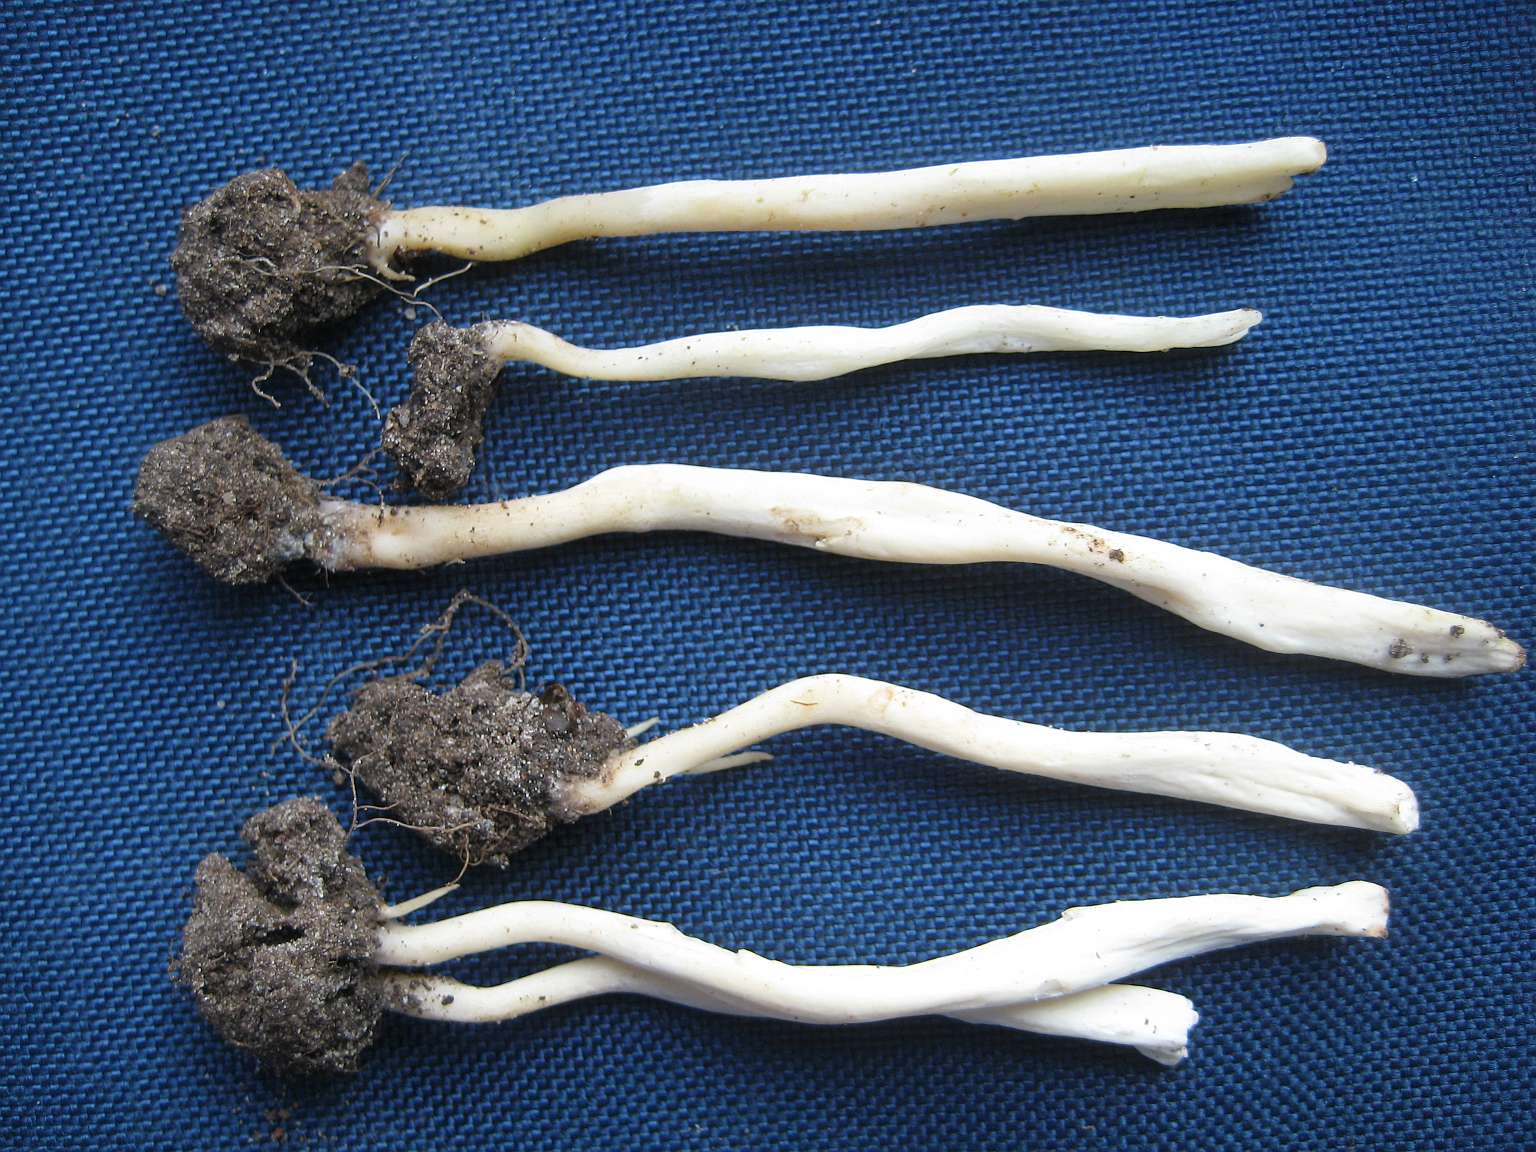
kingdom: Fungi
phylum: Basidiomycota
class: Agaricomycetes
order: Agaricales
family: Clavariaceae
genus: Clavaria
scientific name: Clavaria fragilis
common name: bugtet køllesvamp
